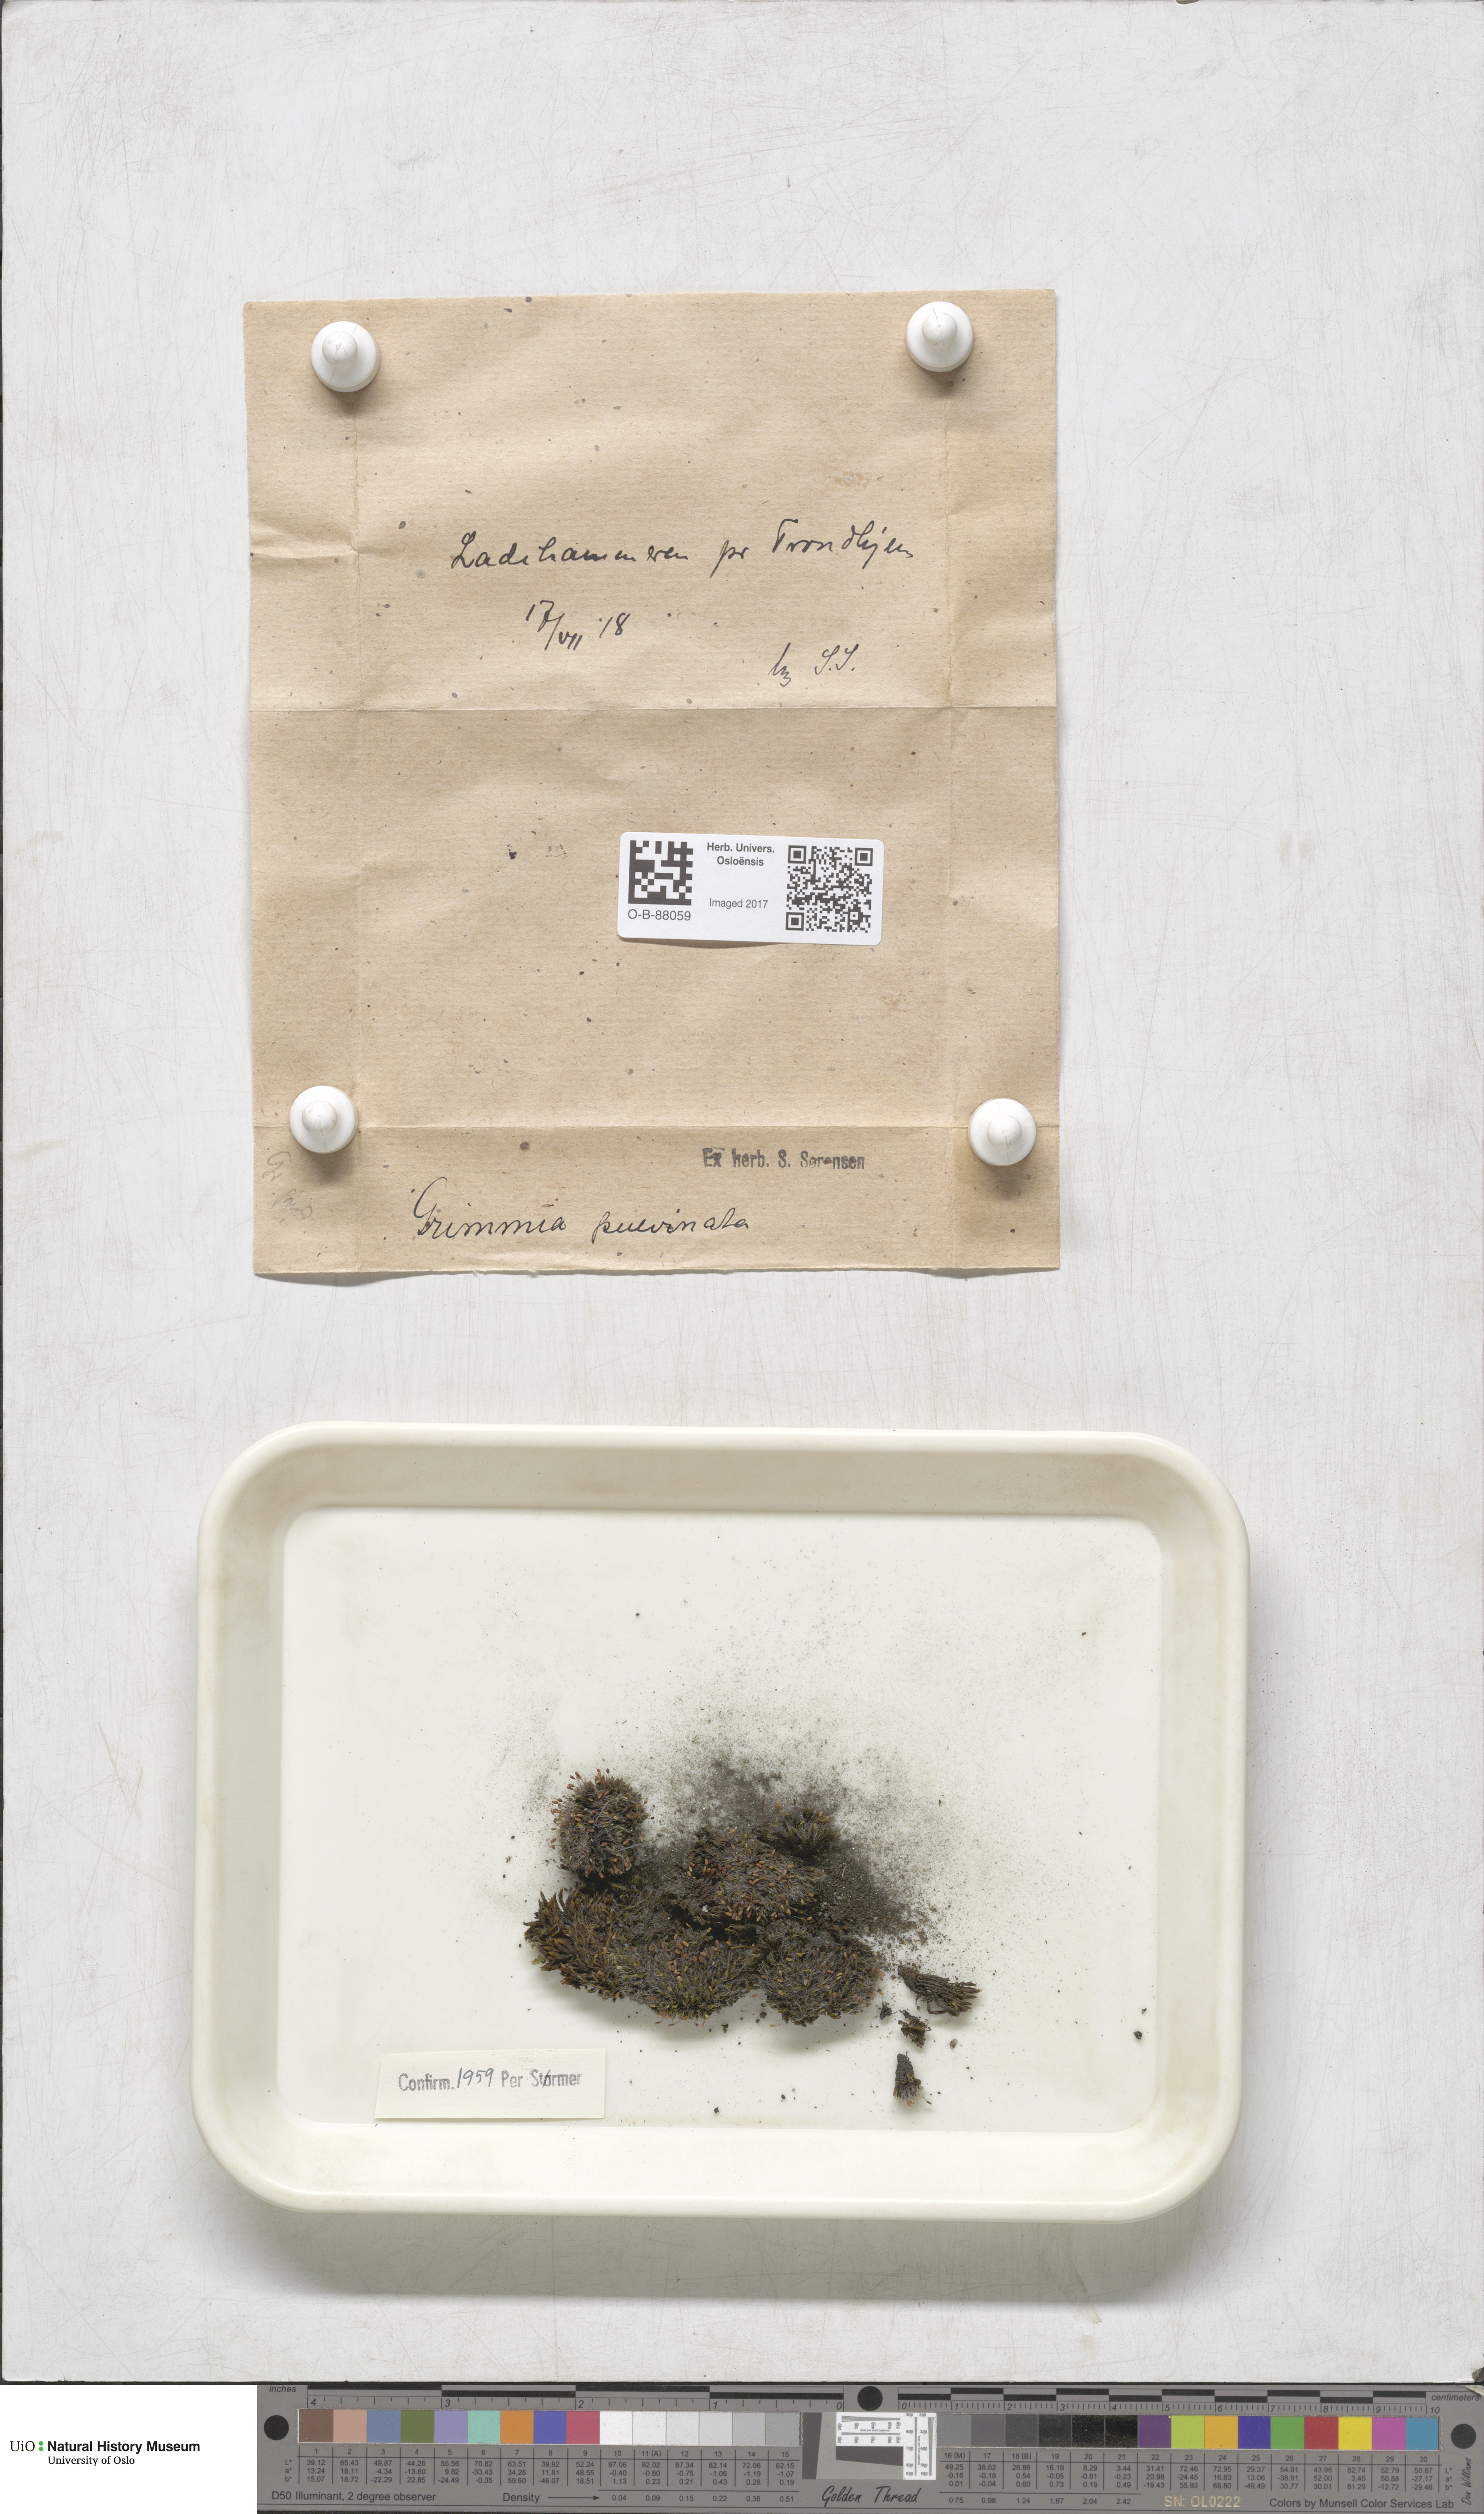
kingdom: Plantae
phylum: Bryophyta
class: Bryopsida
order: Grimmiales
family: Grimmiaceae
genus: Grimmia
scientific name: Grimmia pulvinata
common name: Grey-cushioned grimmia
